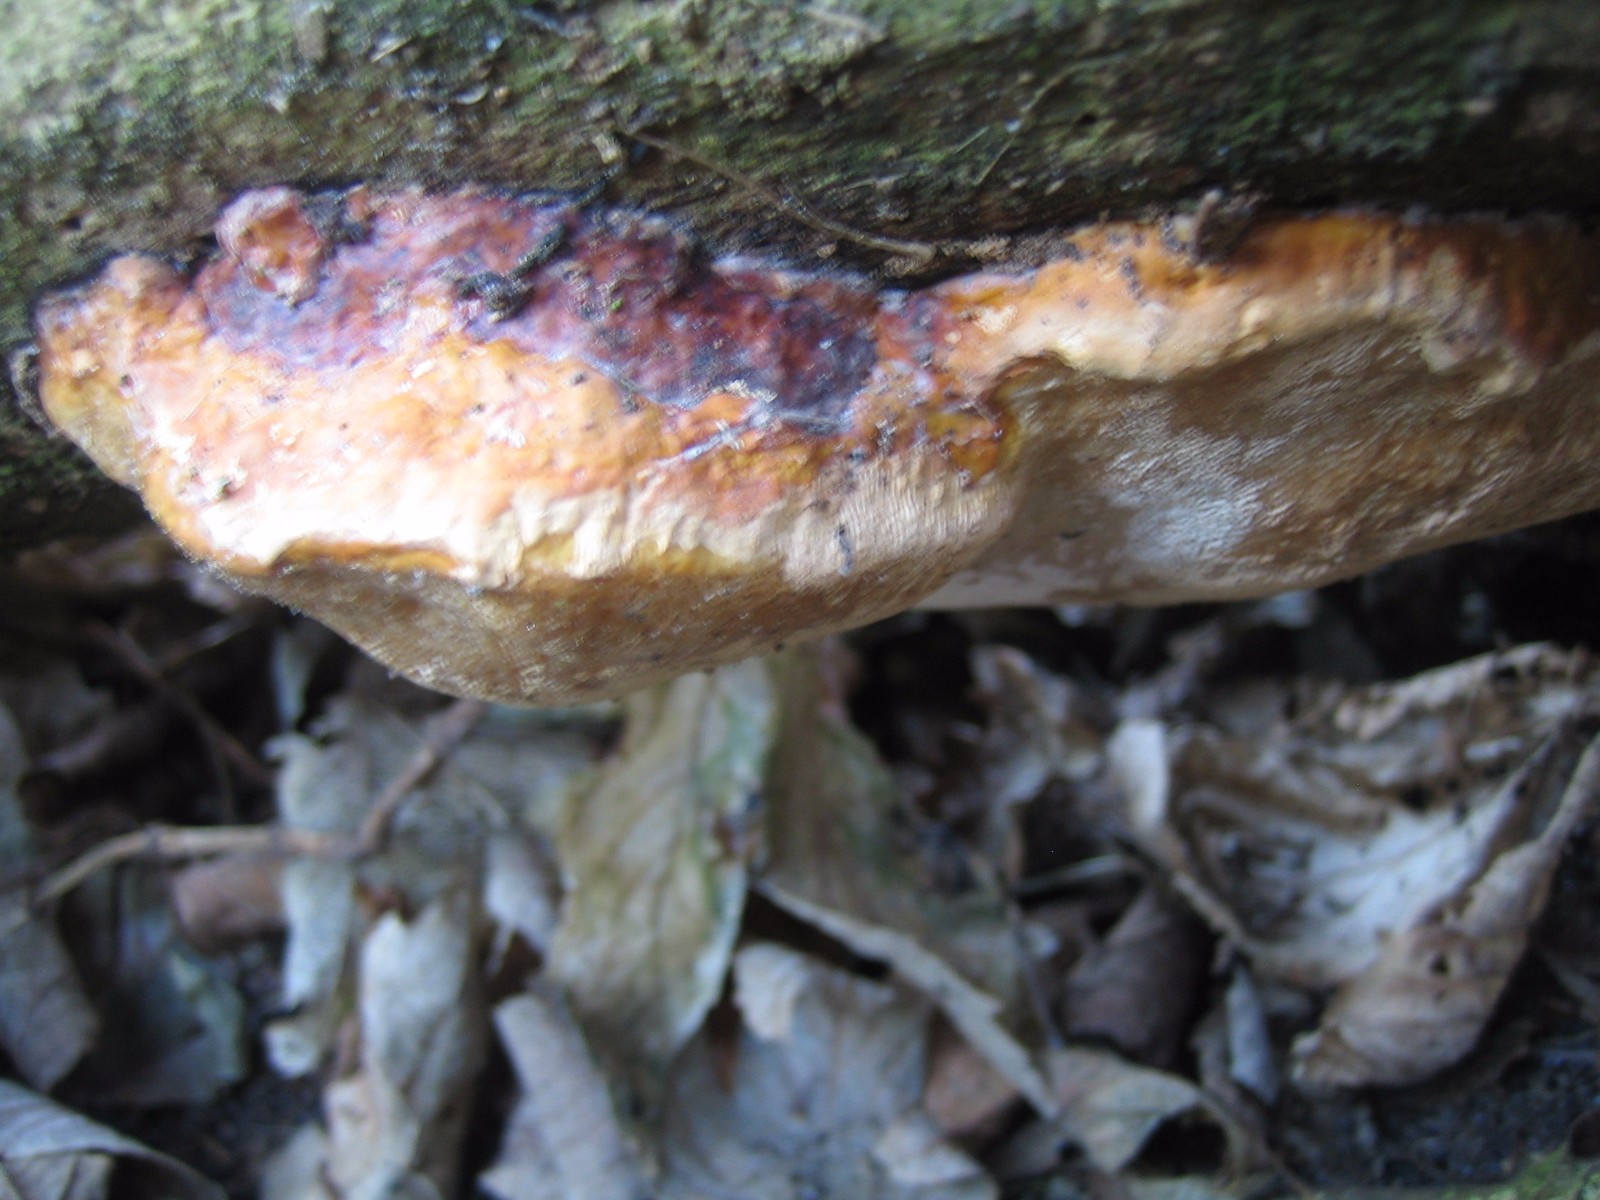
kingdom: Fungi
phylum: Basidiomycota
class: Agaricomycetes
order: Polyporales
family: Fomitopsidaceae
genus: Fomitopsis
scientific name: Fomitopsis pinicola
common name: randbæltet hovporesvamp
